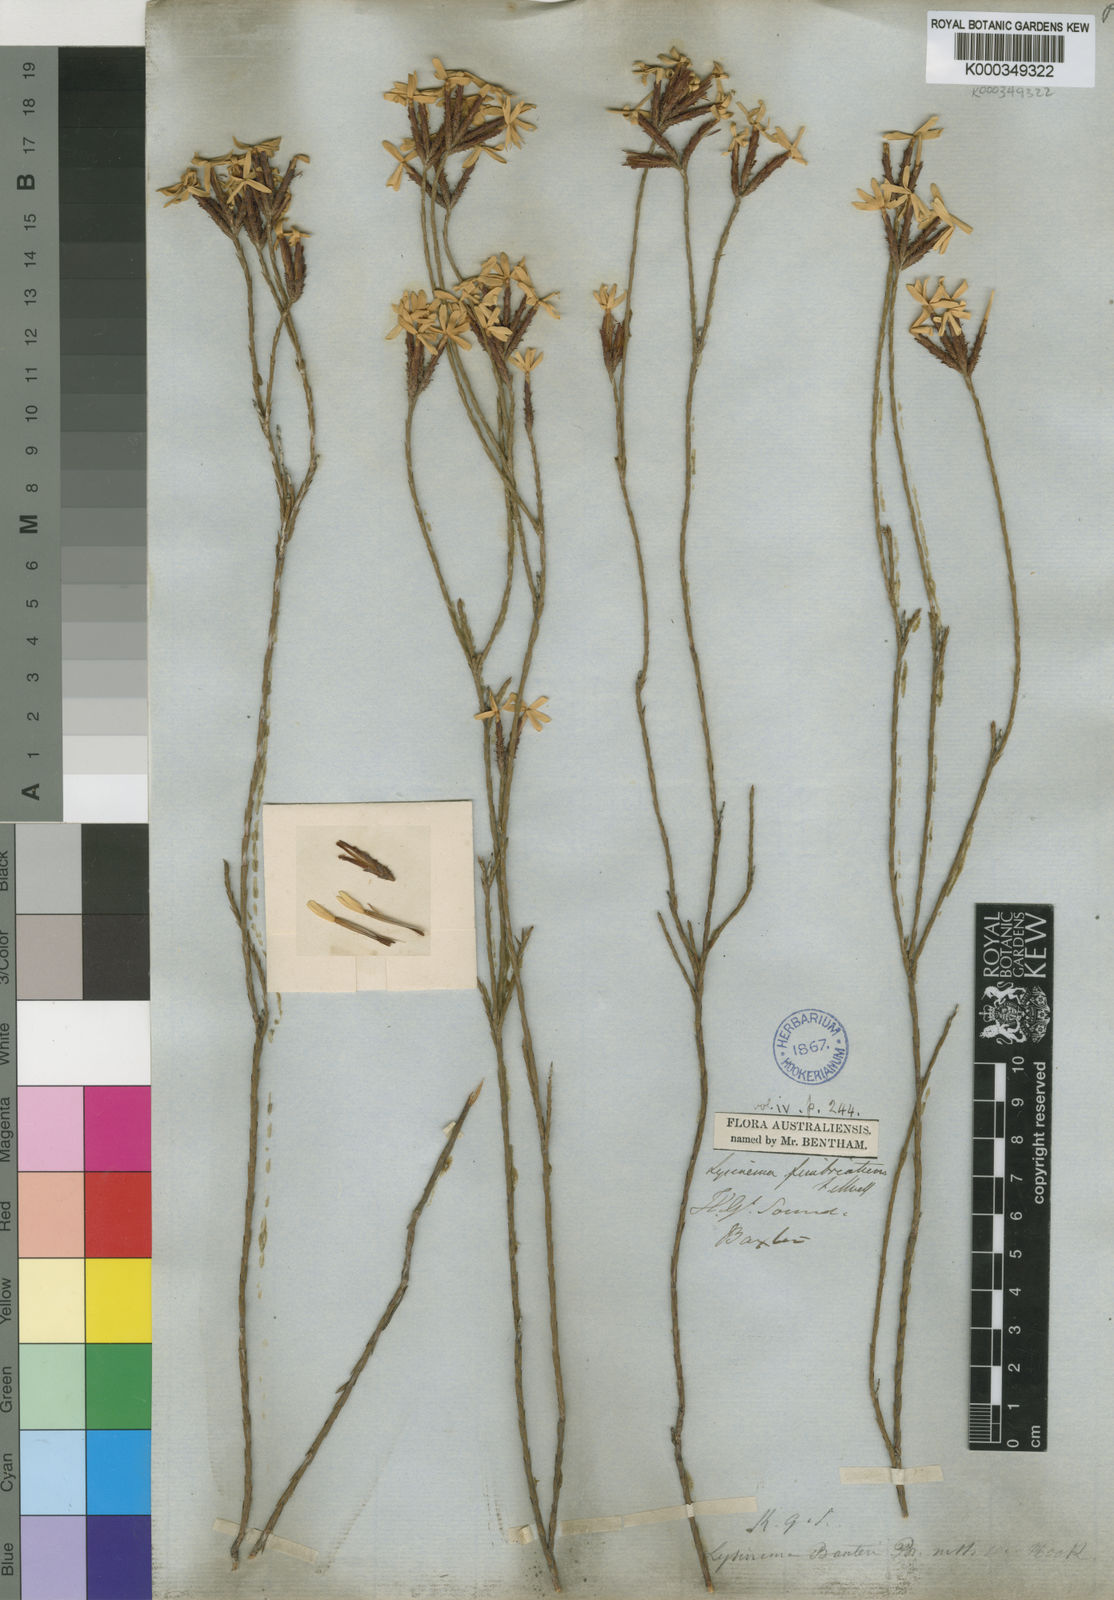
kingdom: Plantae
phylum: Tracheophyta
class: Magnoliopsida
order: Ericales
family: Ericaceae
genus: Lysinema
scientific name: Lysinema fimbriatum
